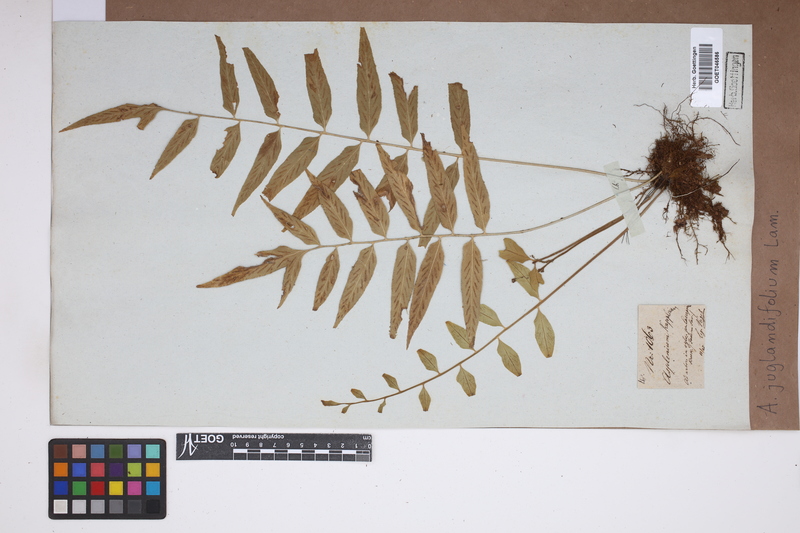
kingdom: Plantae
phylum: Tracheophyta
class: Polypodiopsida
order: Polypodiales
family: Aspleniaceae
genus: Asplenium
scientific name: Asplenium juglandifolium
